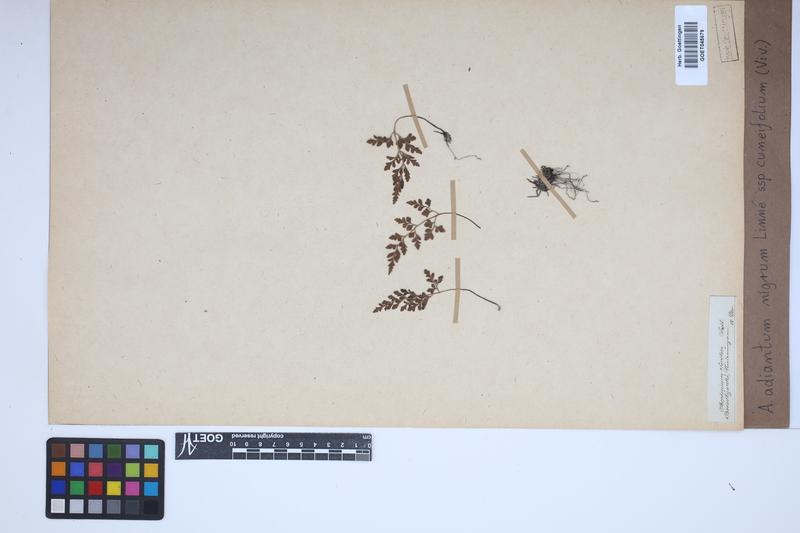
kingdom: Plantae
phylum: Tracheophyta
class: Polypodiopsida
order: Polypodiales
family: Aspleniaceae
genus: Asplenium
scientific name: Asplenium cuneifolium
